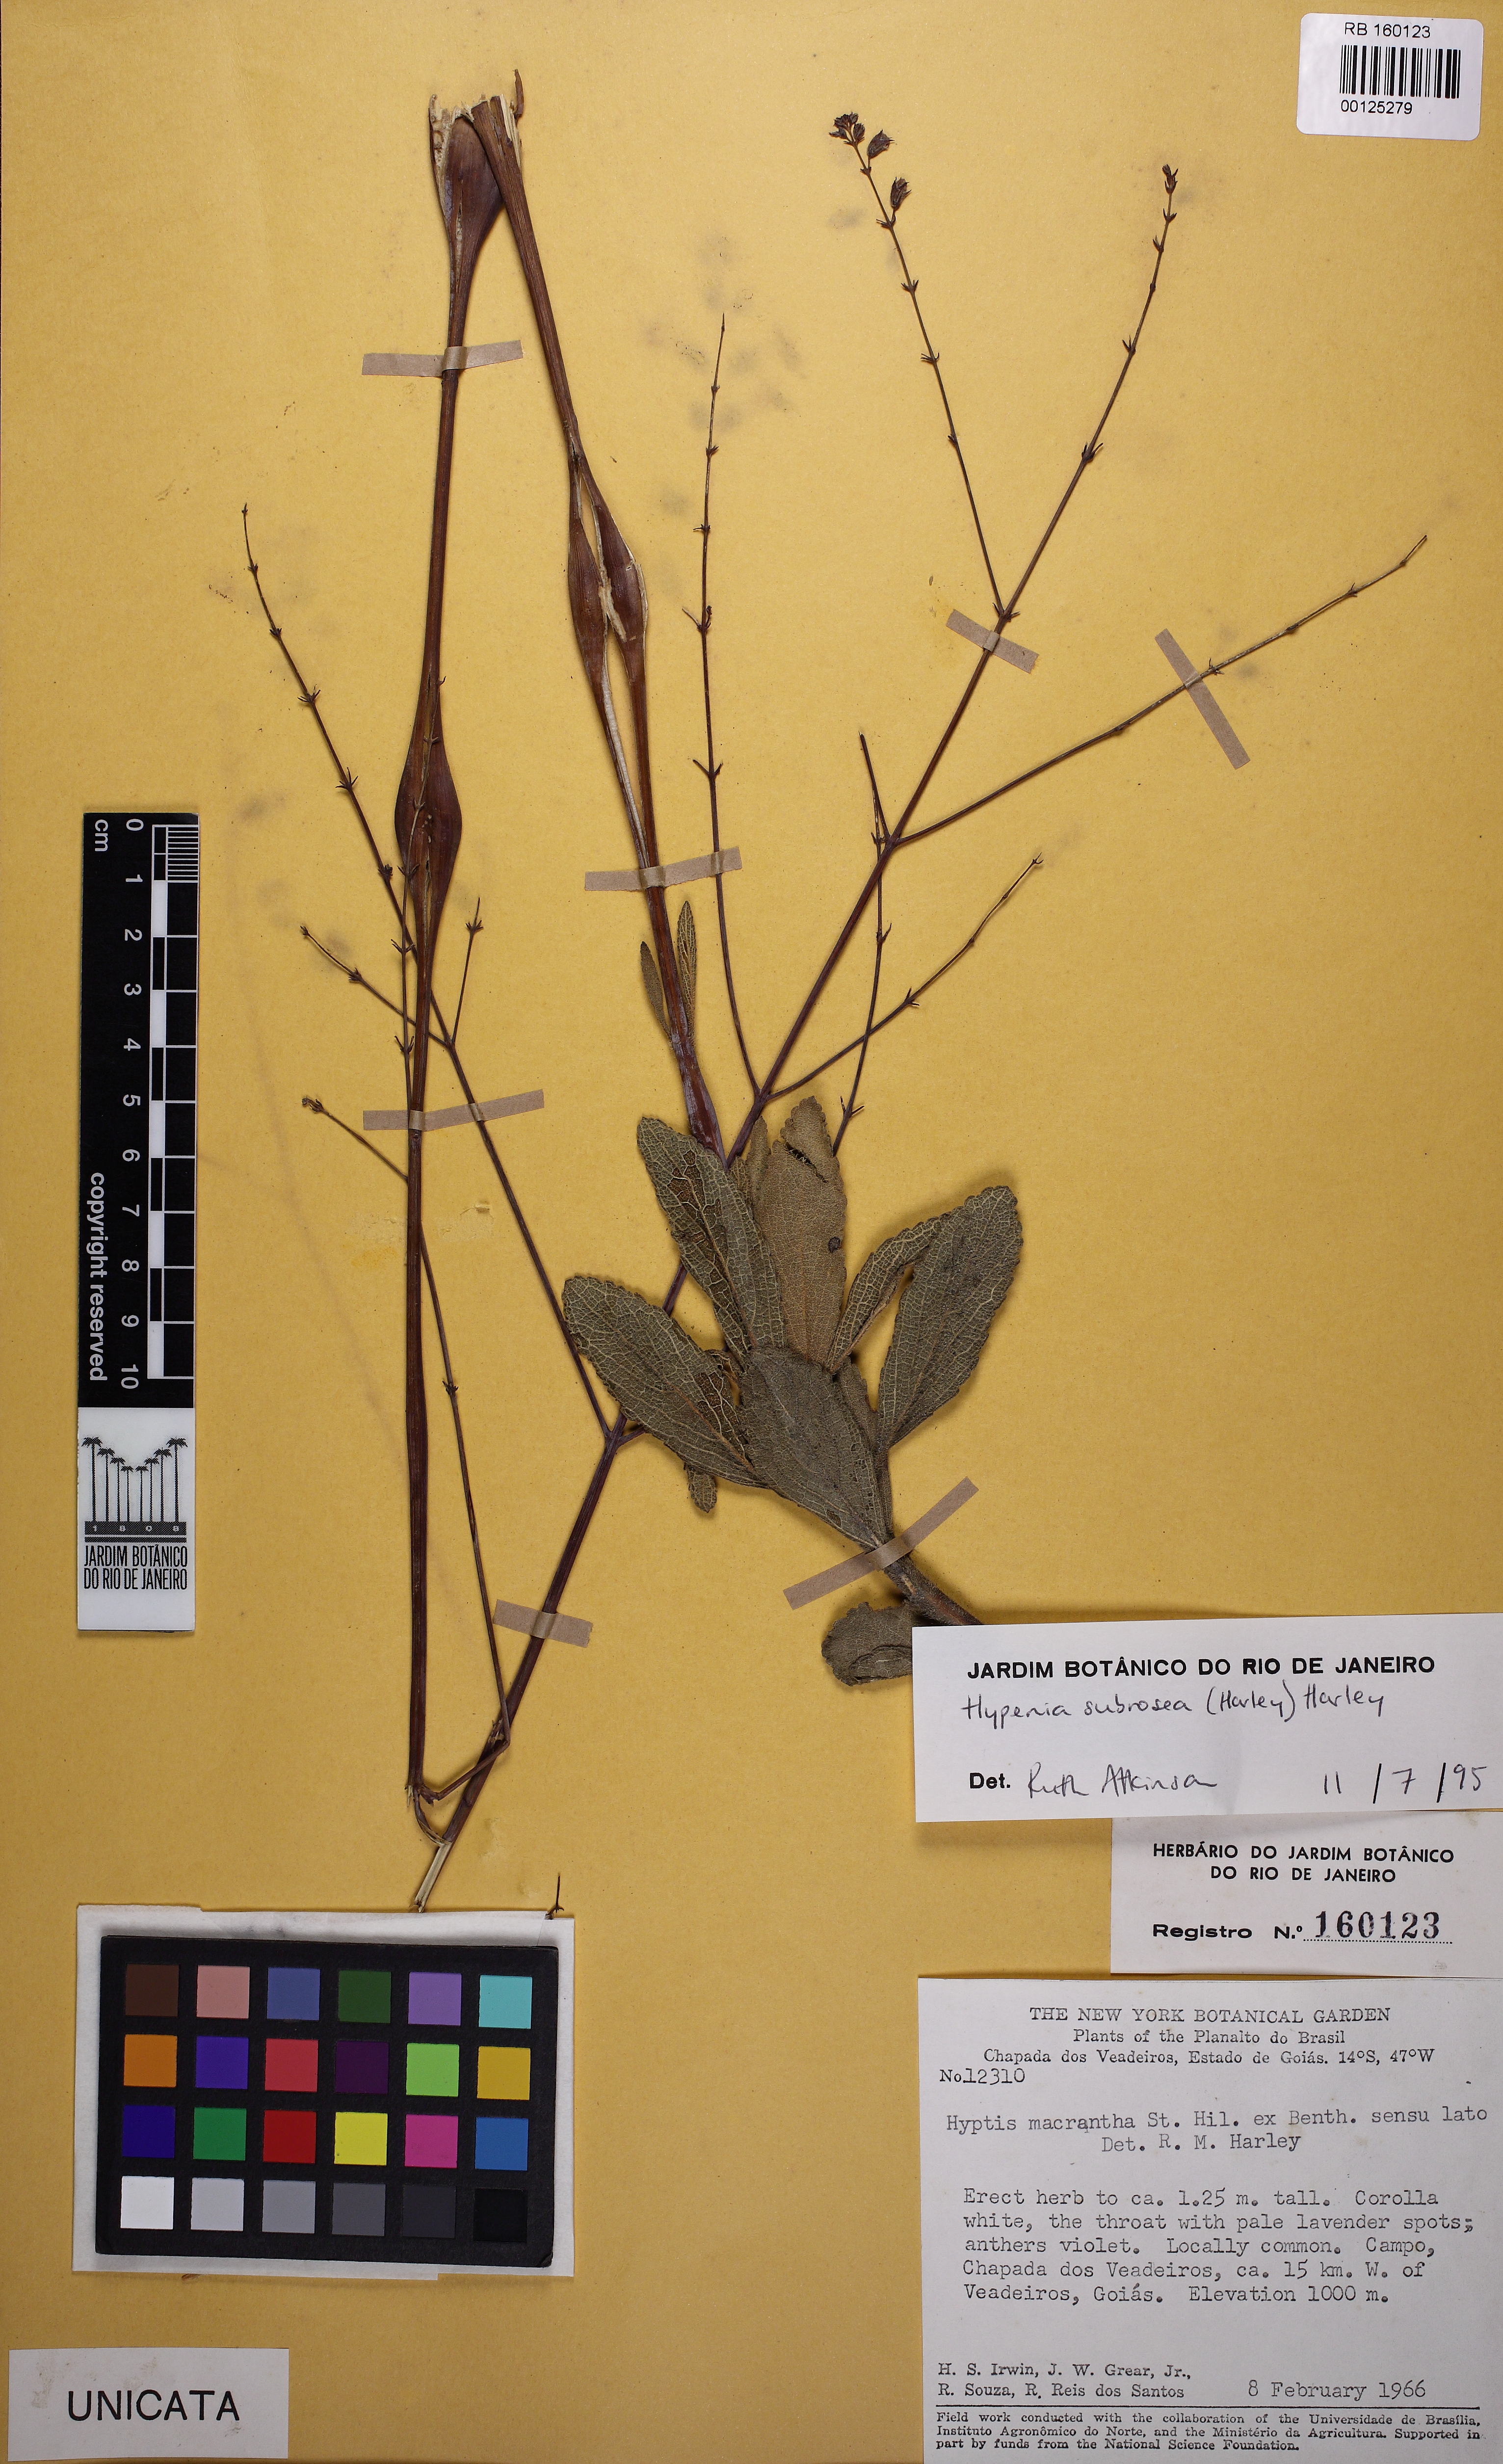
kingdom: Plantae
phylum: Tracheophyta
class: Magnoliopsida
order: Lamiales
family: Lamiaceae
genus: Hypenia
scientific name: Hypenia subrosea
